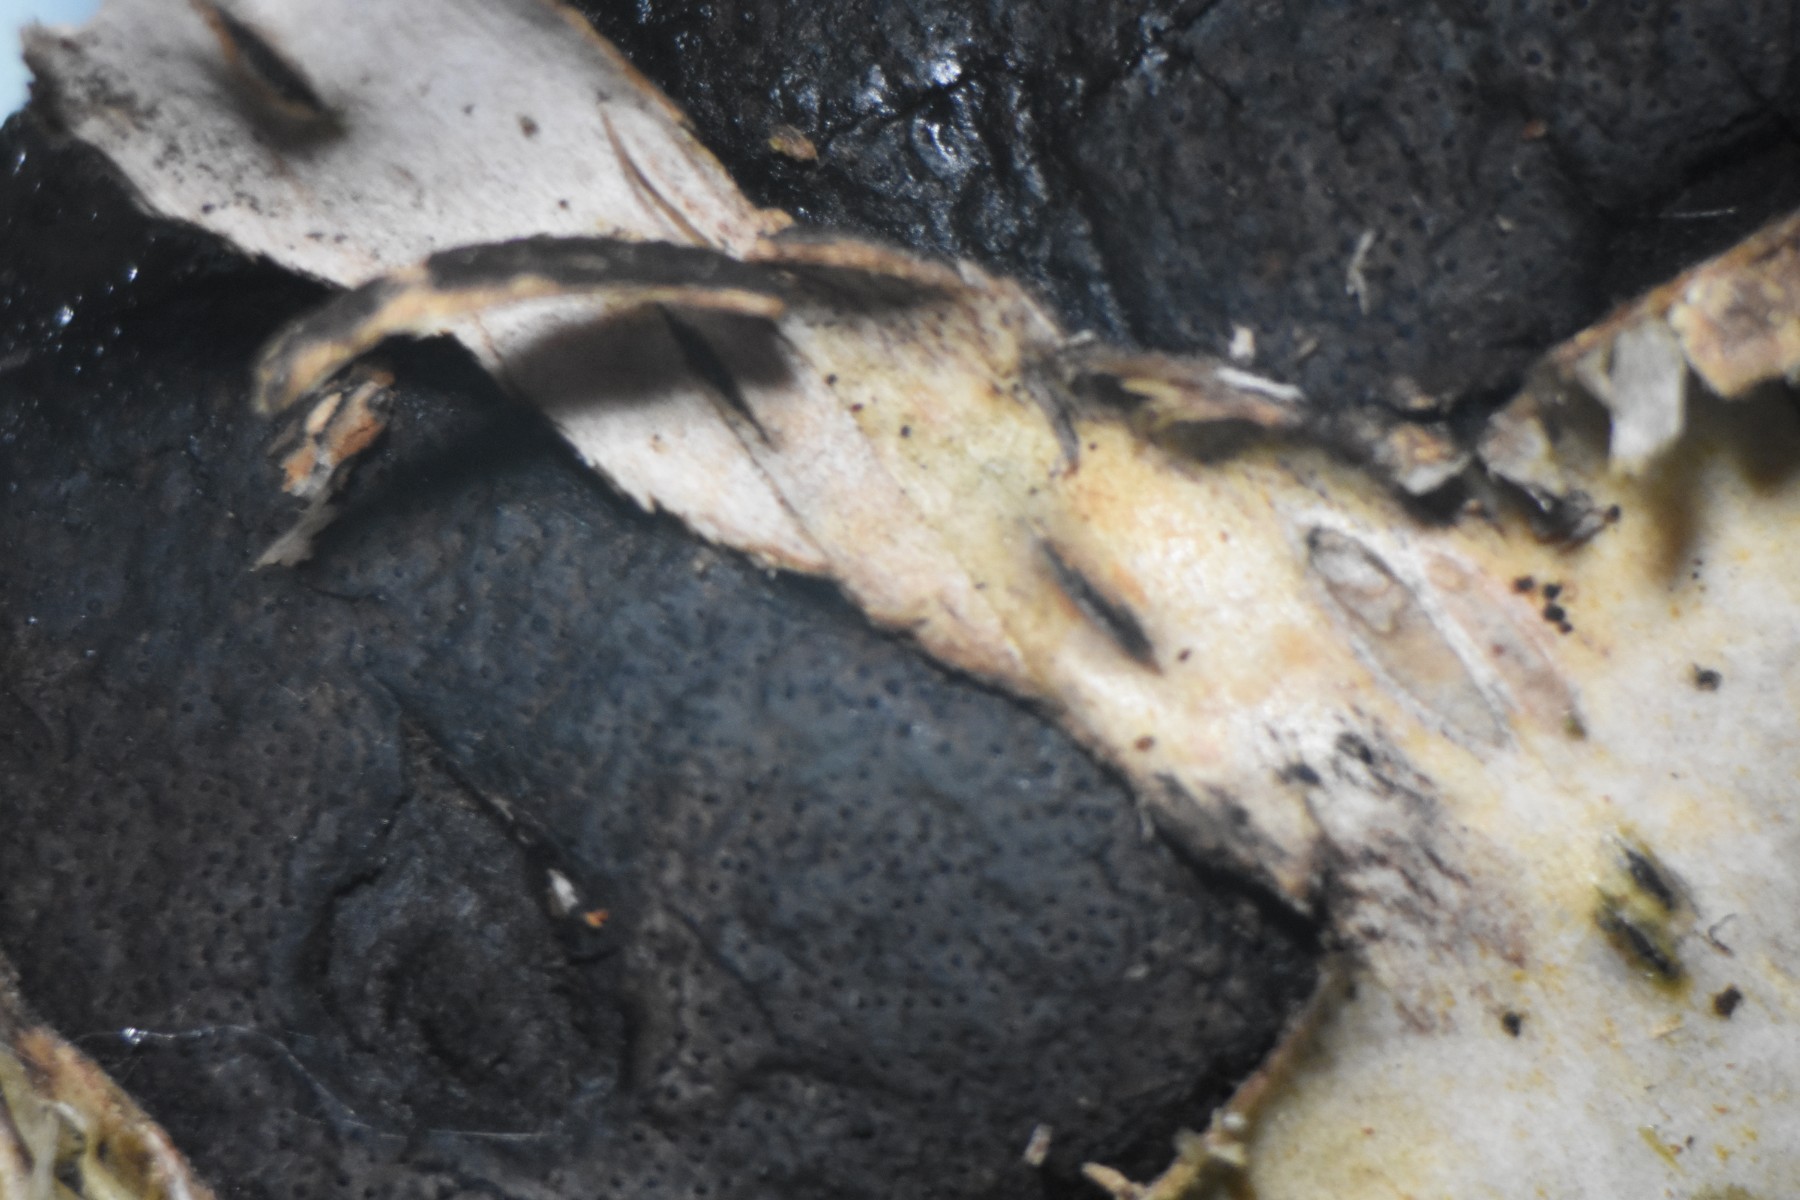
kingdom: Fungi
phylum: Ascomycota
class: Sordariomycetes
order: Xylariales
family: Diatrypaceae
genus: Diatrype
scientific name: Diatrype
